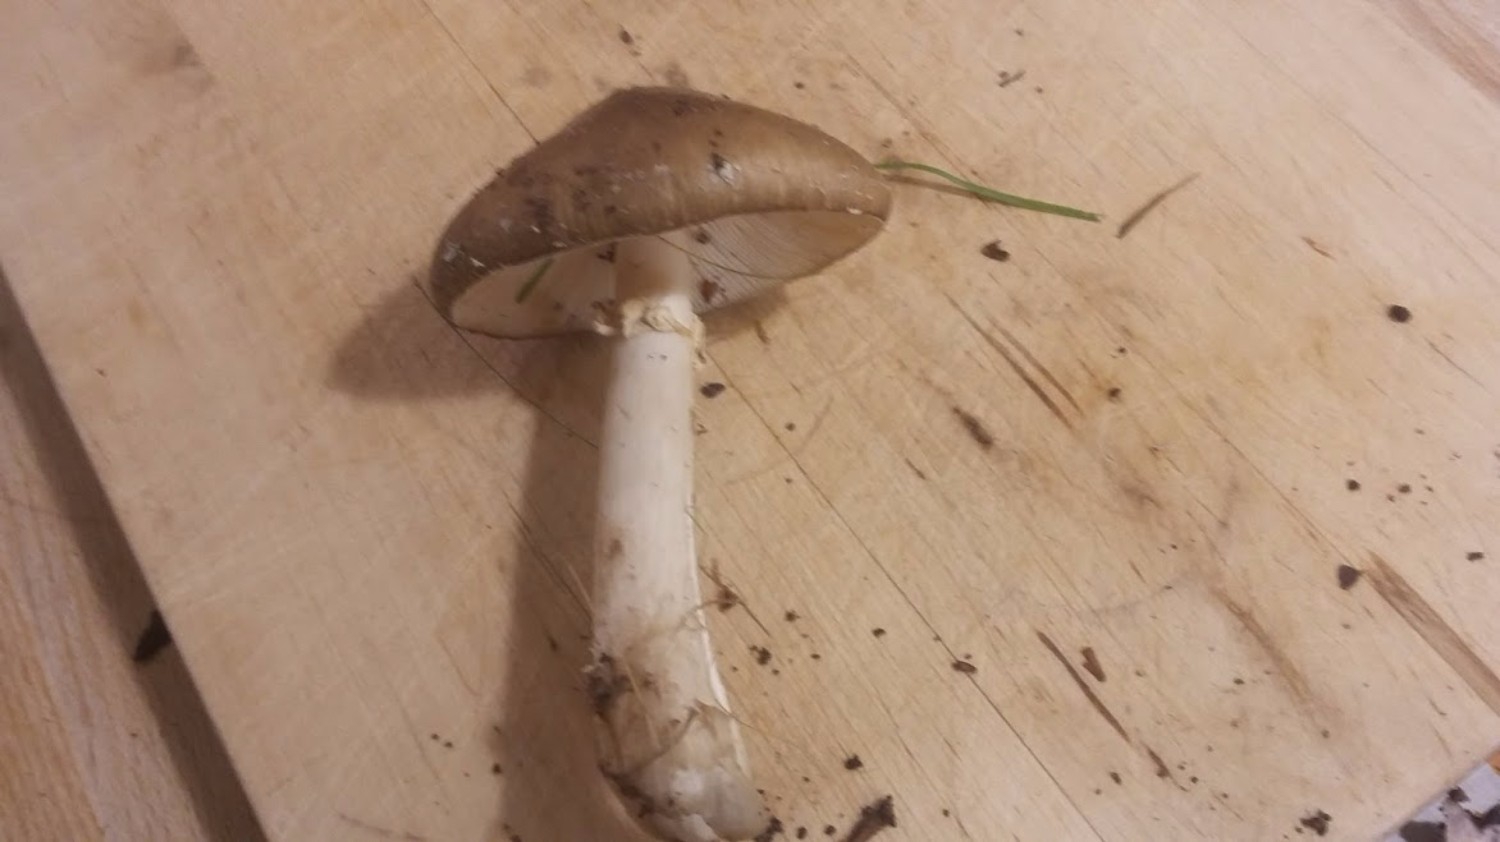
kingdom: Fungi
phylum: Basidiomycota
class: Agaricomycetes
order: Agaricales
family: Amanitaceae
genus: Amanita
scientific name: Amanita porphyria
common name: porfyr-fluesvamp
